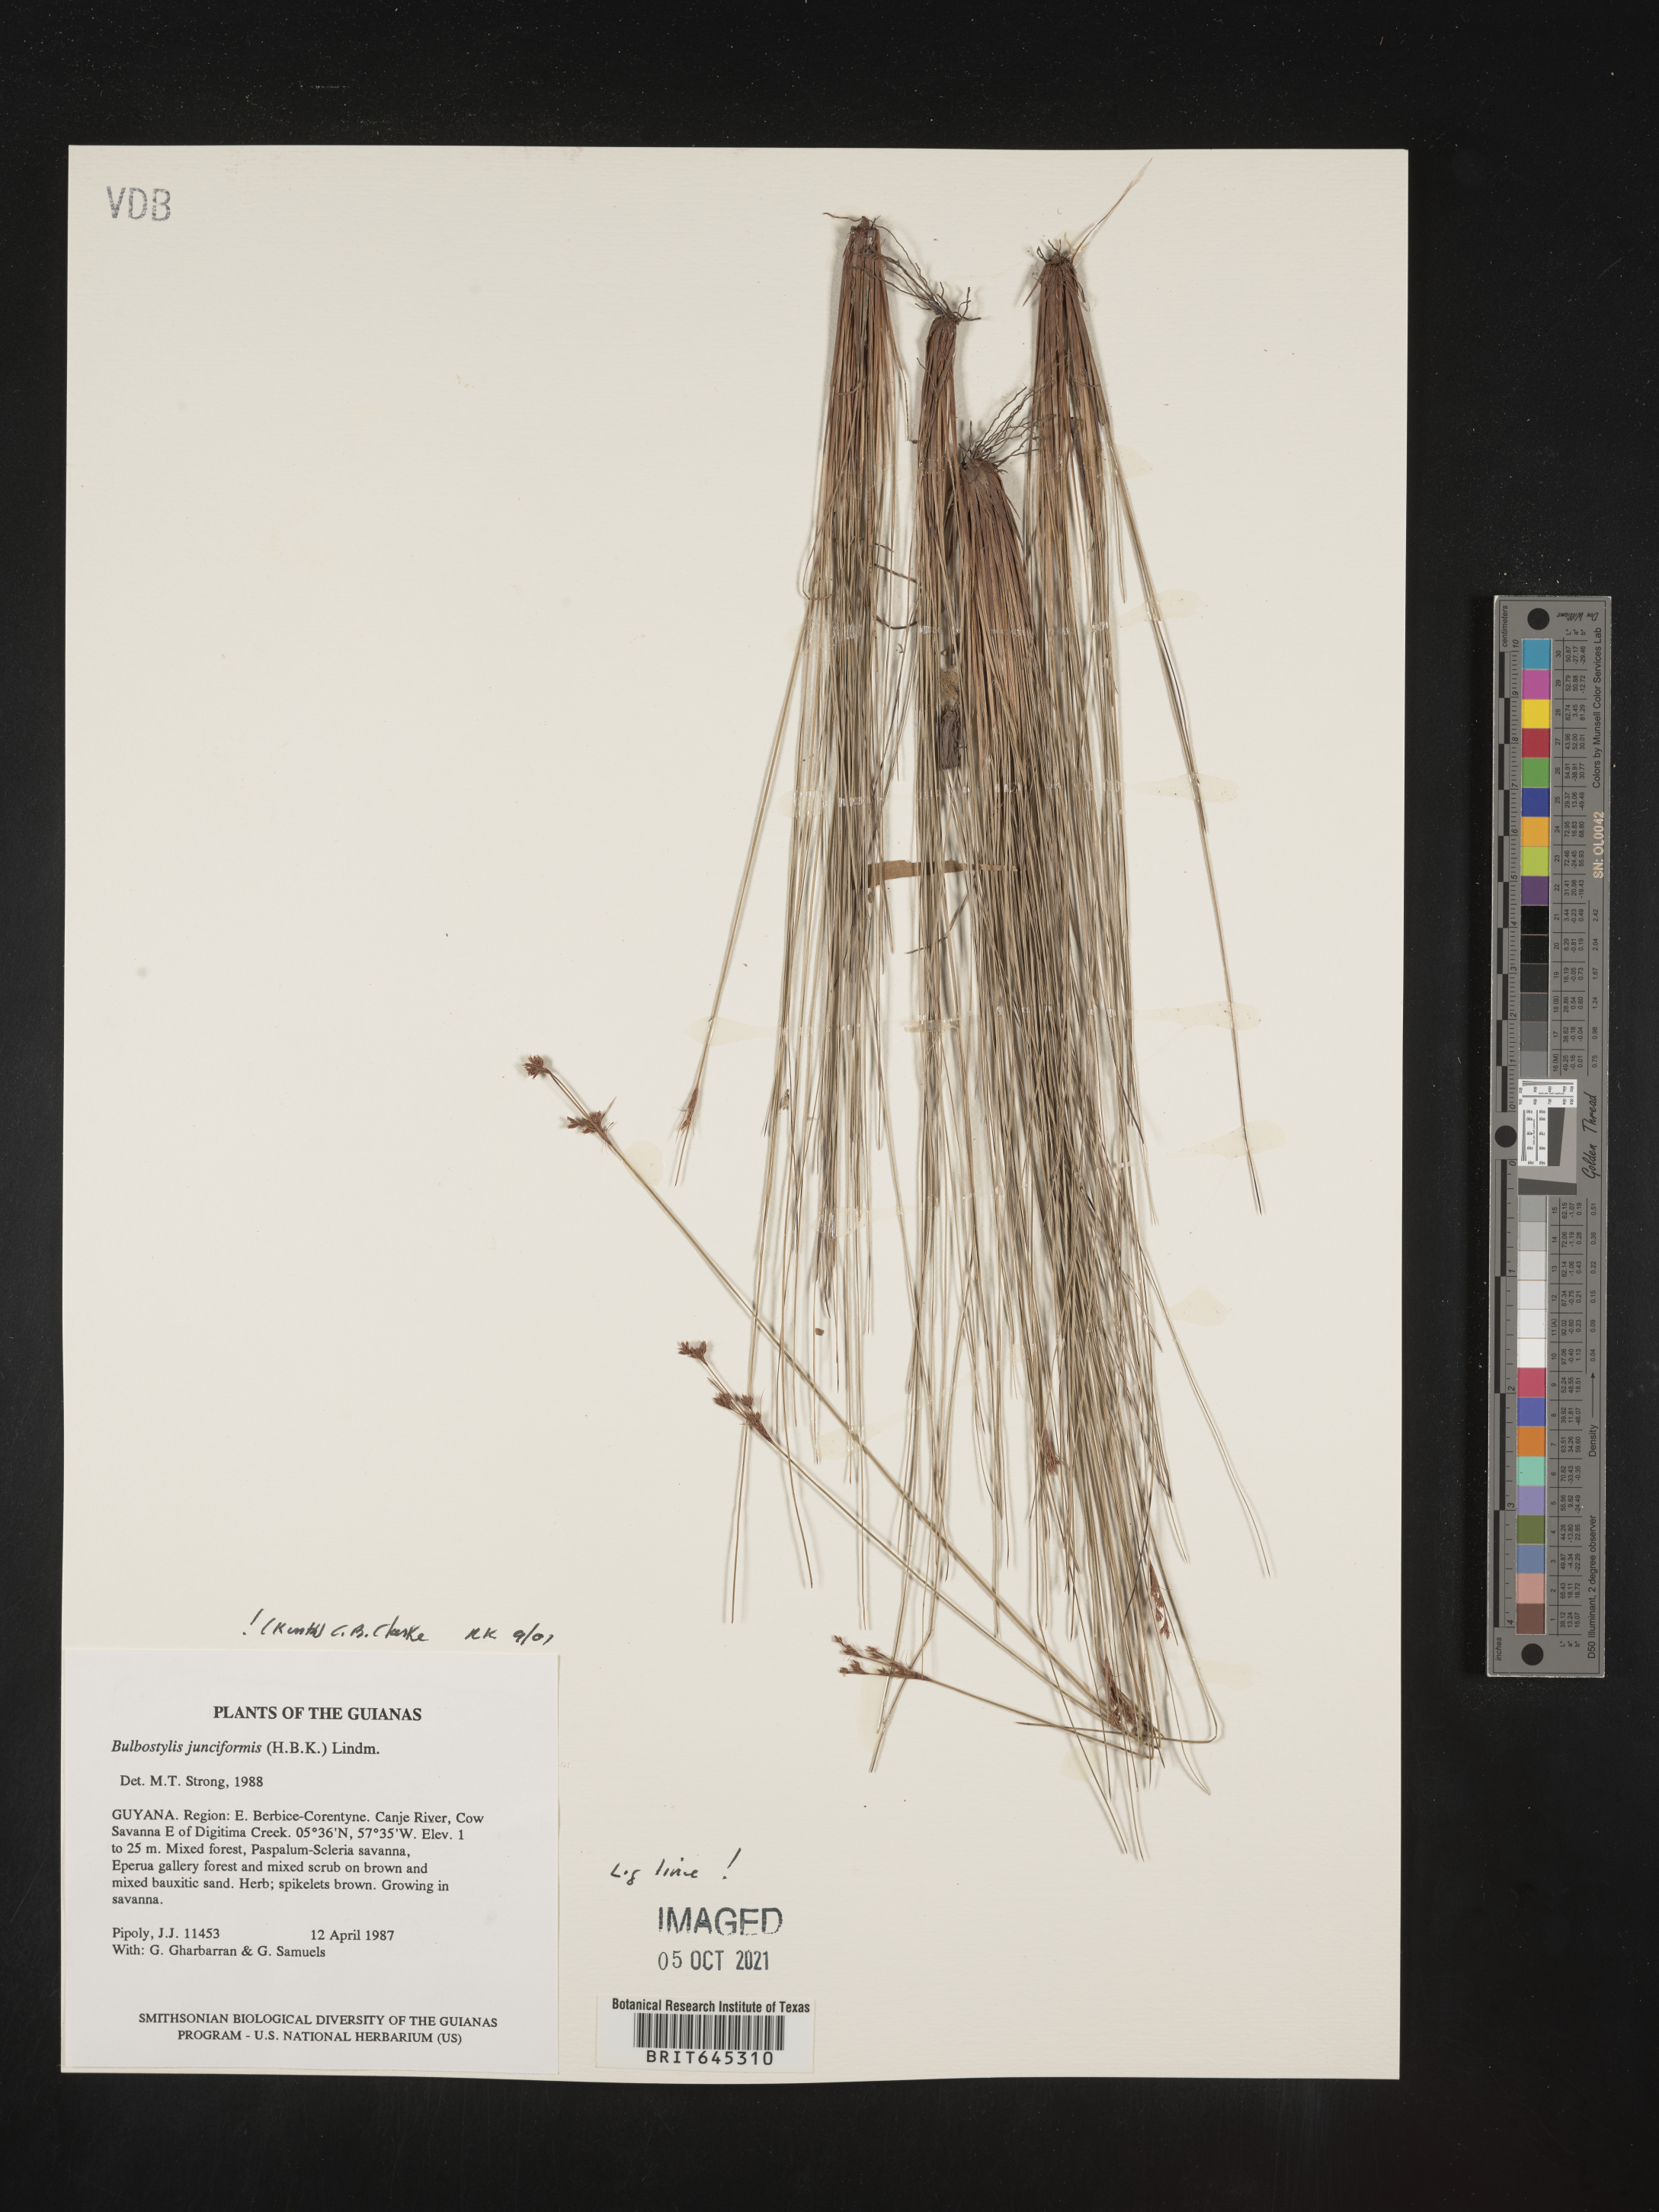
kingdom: Plantae
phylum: Tracheophyta
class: Liliopsida
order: Poales
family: Cyperaceae
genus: Bulbostylis
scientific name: Bulbostylis junciformis
